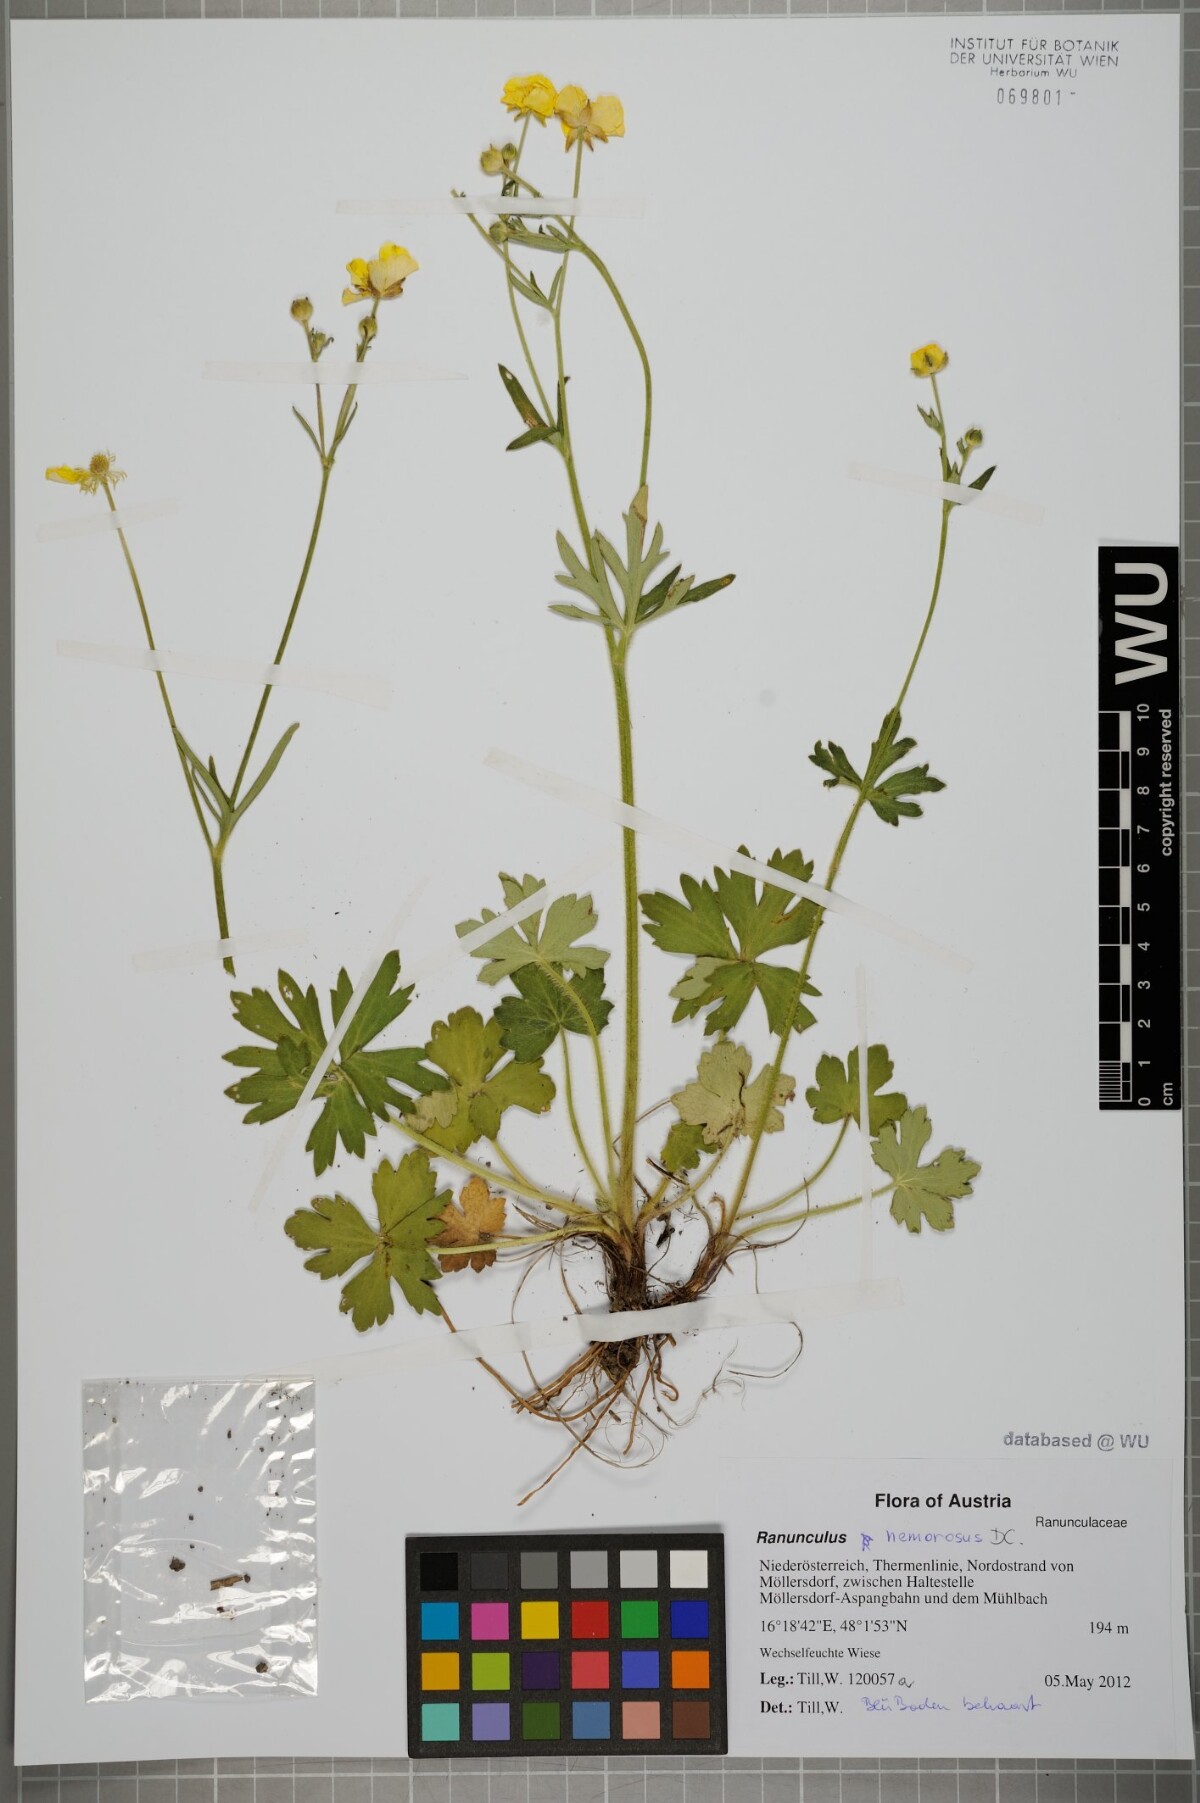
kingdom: Plantae
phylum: Tracheophyta
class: Magnoliopsida
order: Ranunculales
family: Ranunculaceae
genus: Ranunculus
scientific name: Ranunculus polyanthemos
